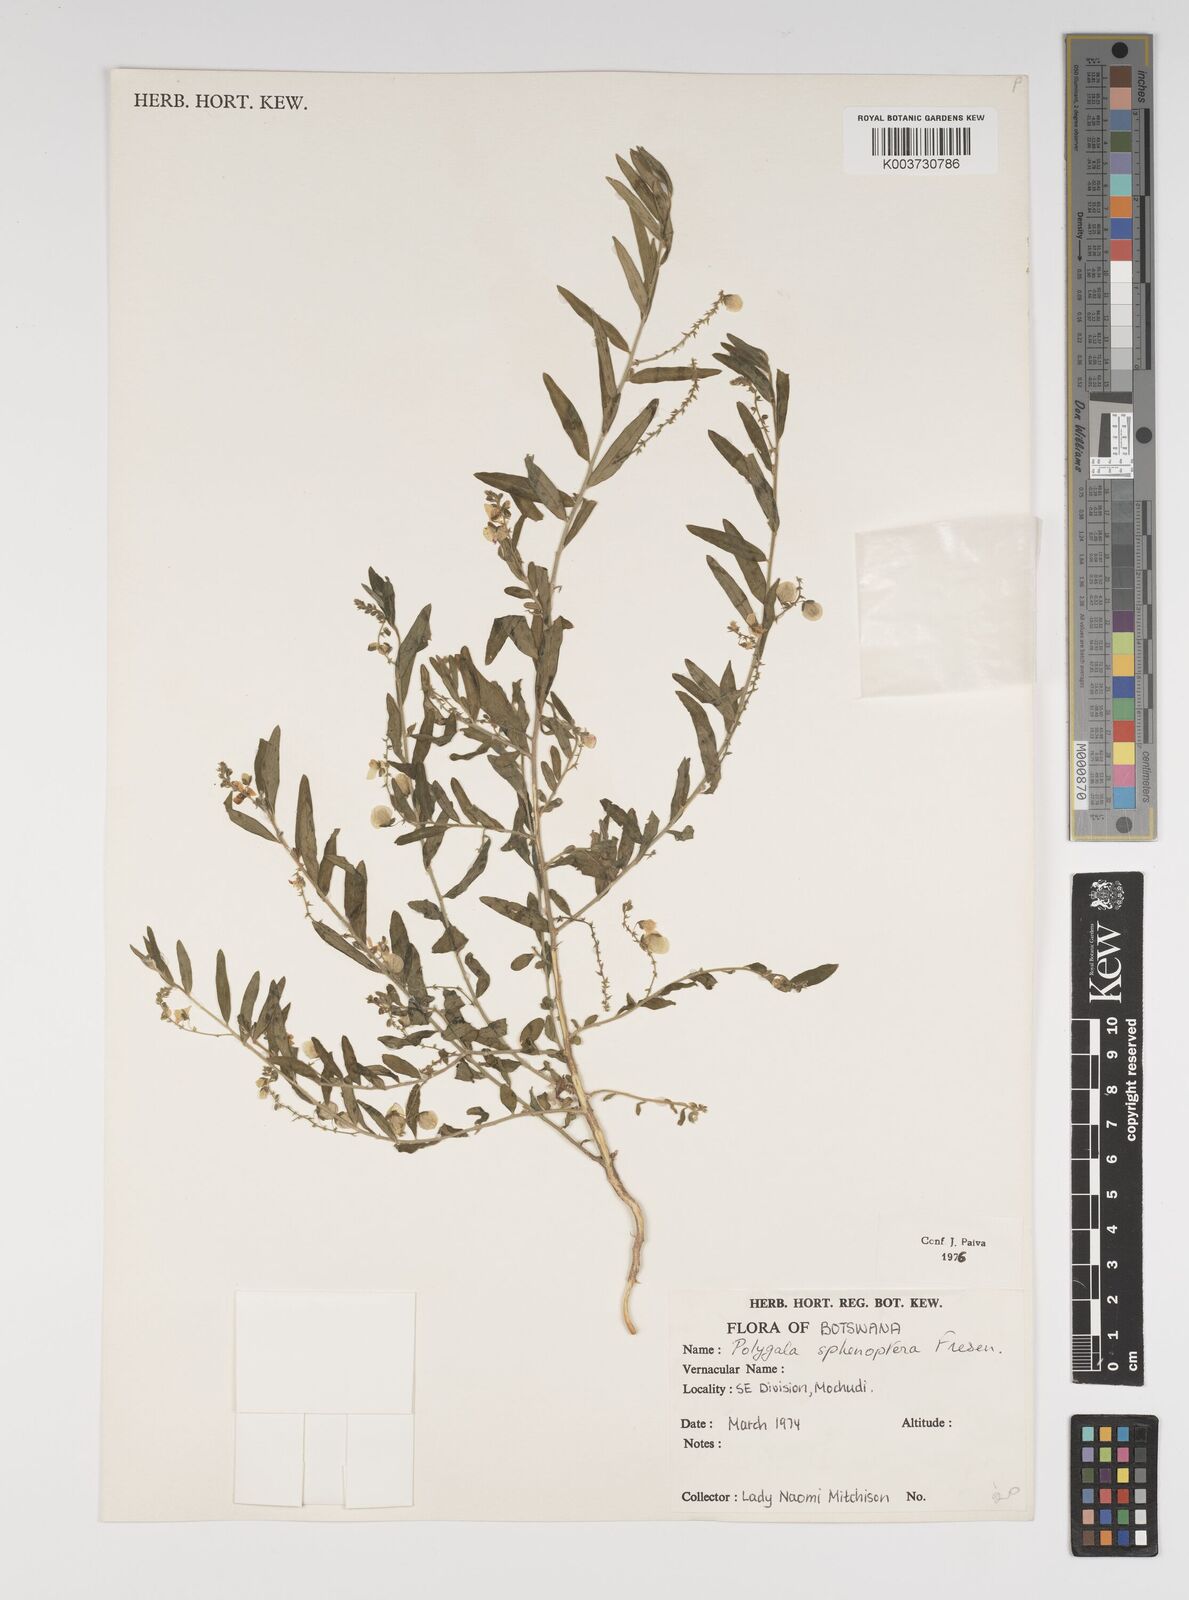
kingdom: Plantae
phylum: Tracheophyta
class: Magnoliopsida
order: Fabales
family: Polygalaceae
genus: Polygala
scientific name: Polygala sphenoptera
